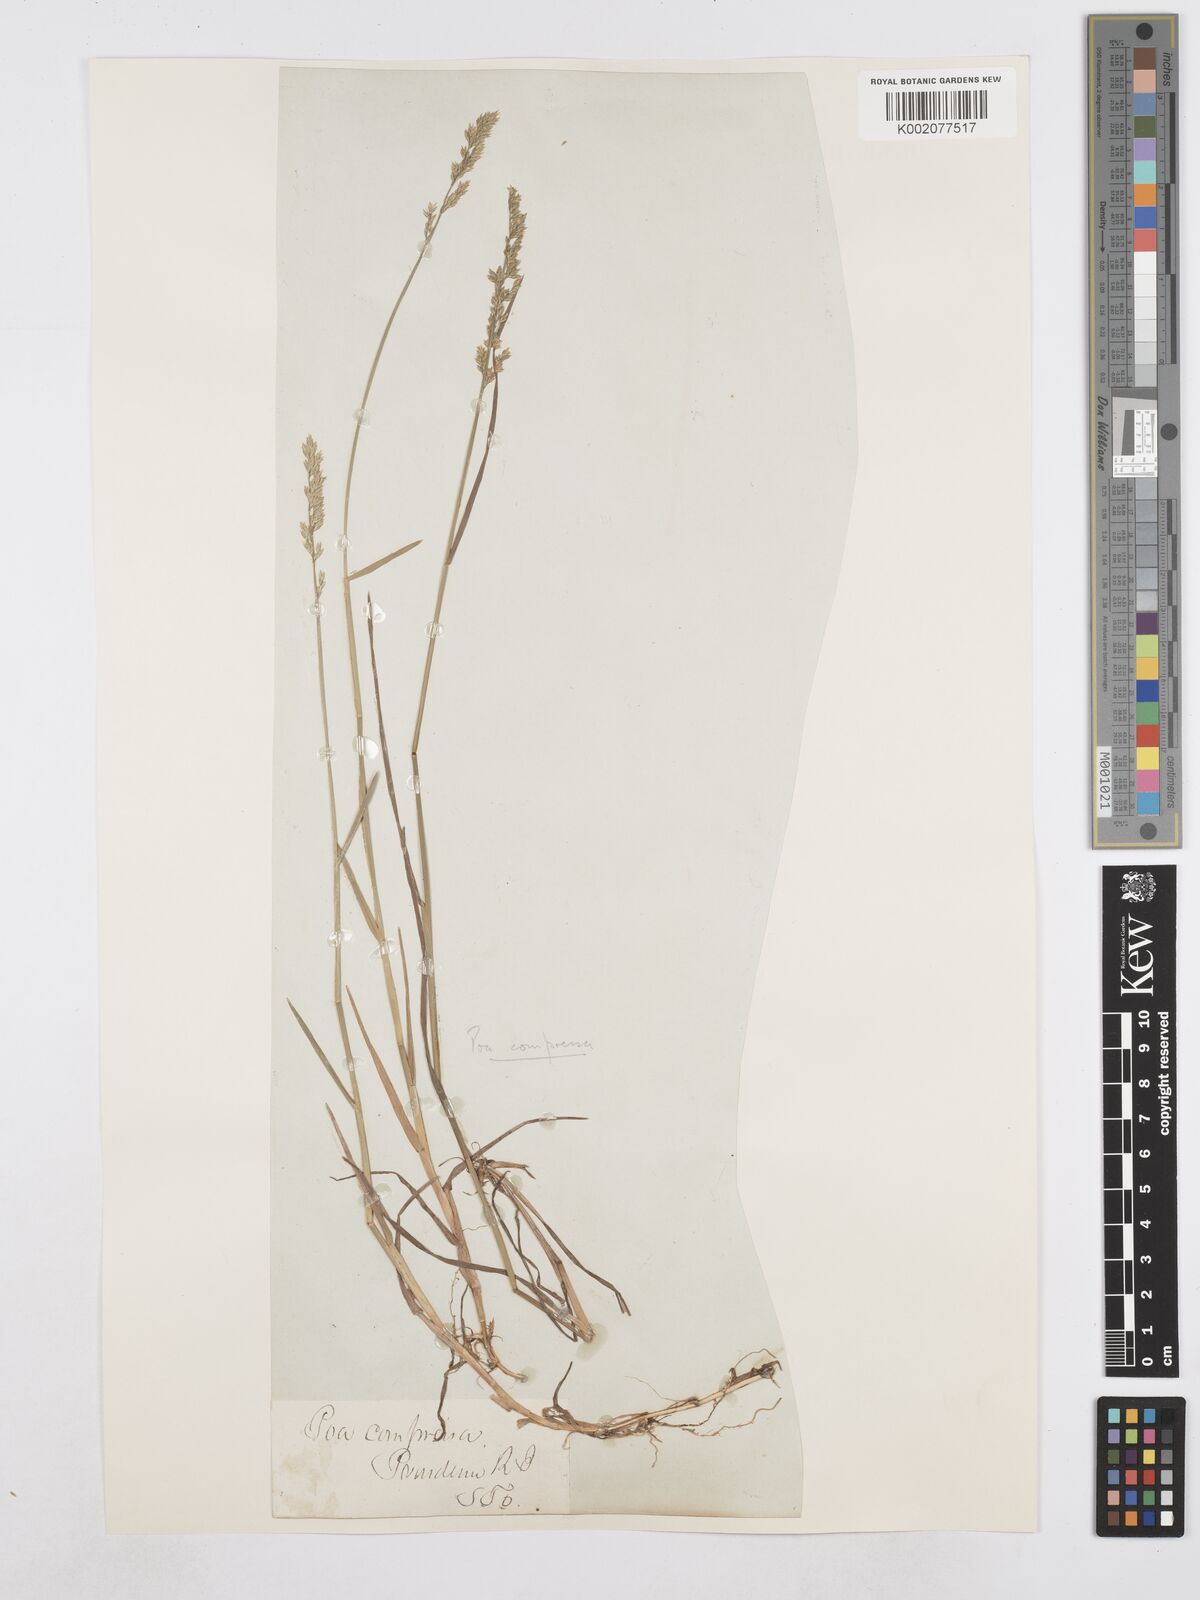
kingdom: Plantae
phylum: Tracheophyta
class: Liliopsida
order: Poales
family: Poaceae
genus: Poa
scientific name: Poa compressa
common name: Canada bluegrass
